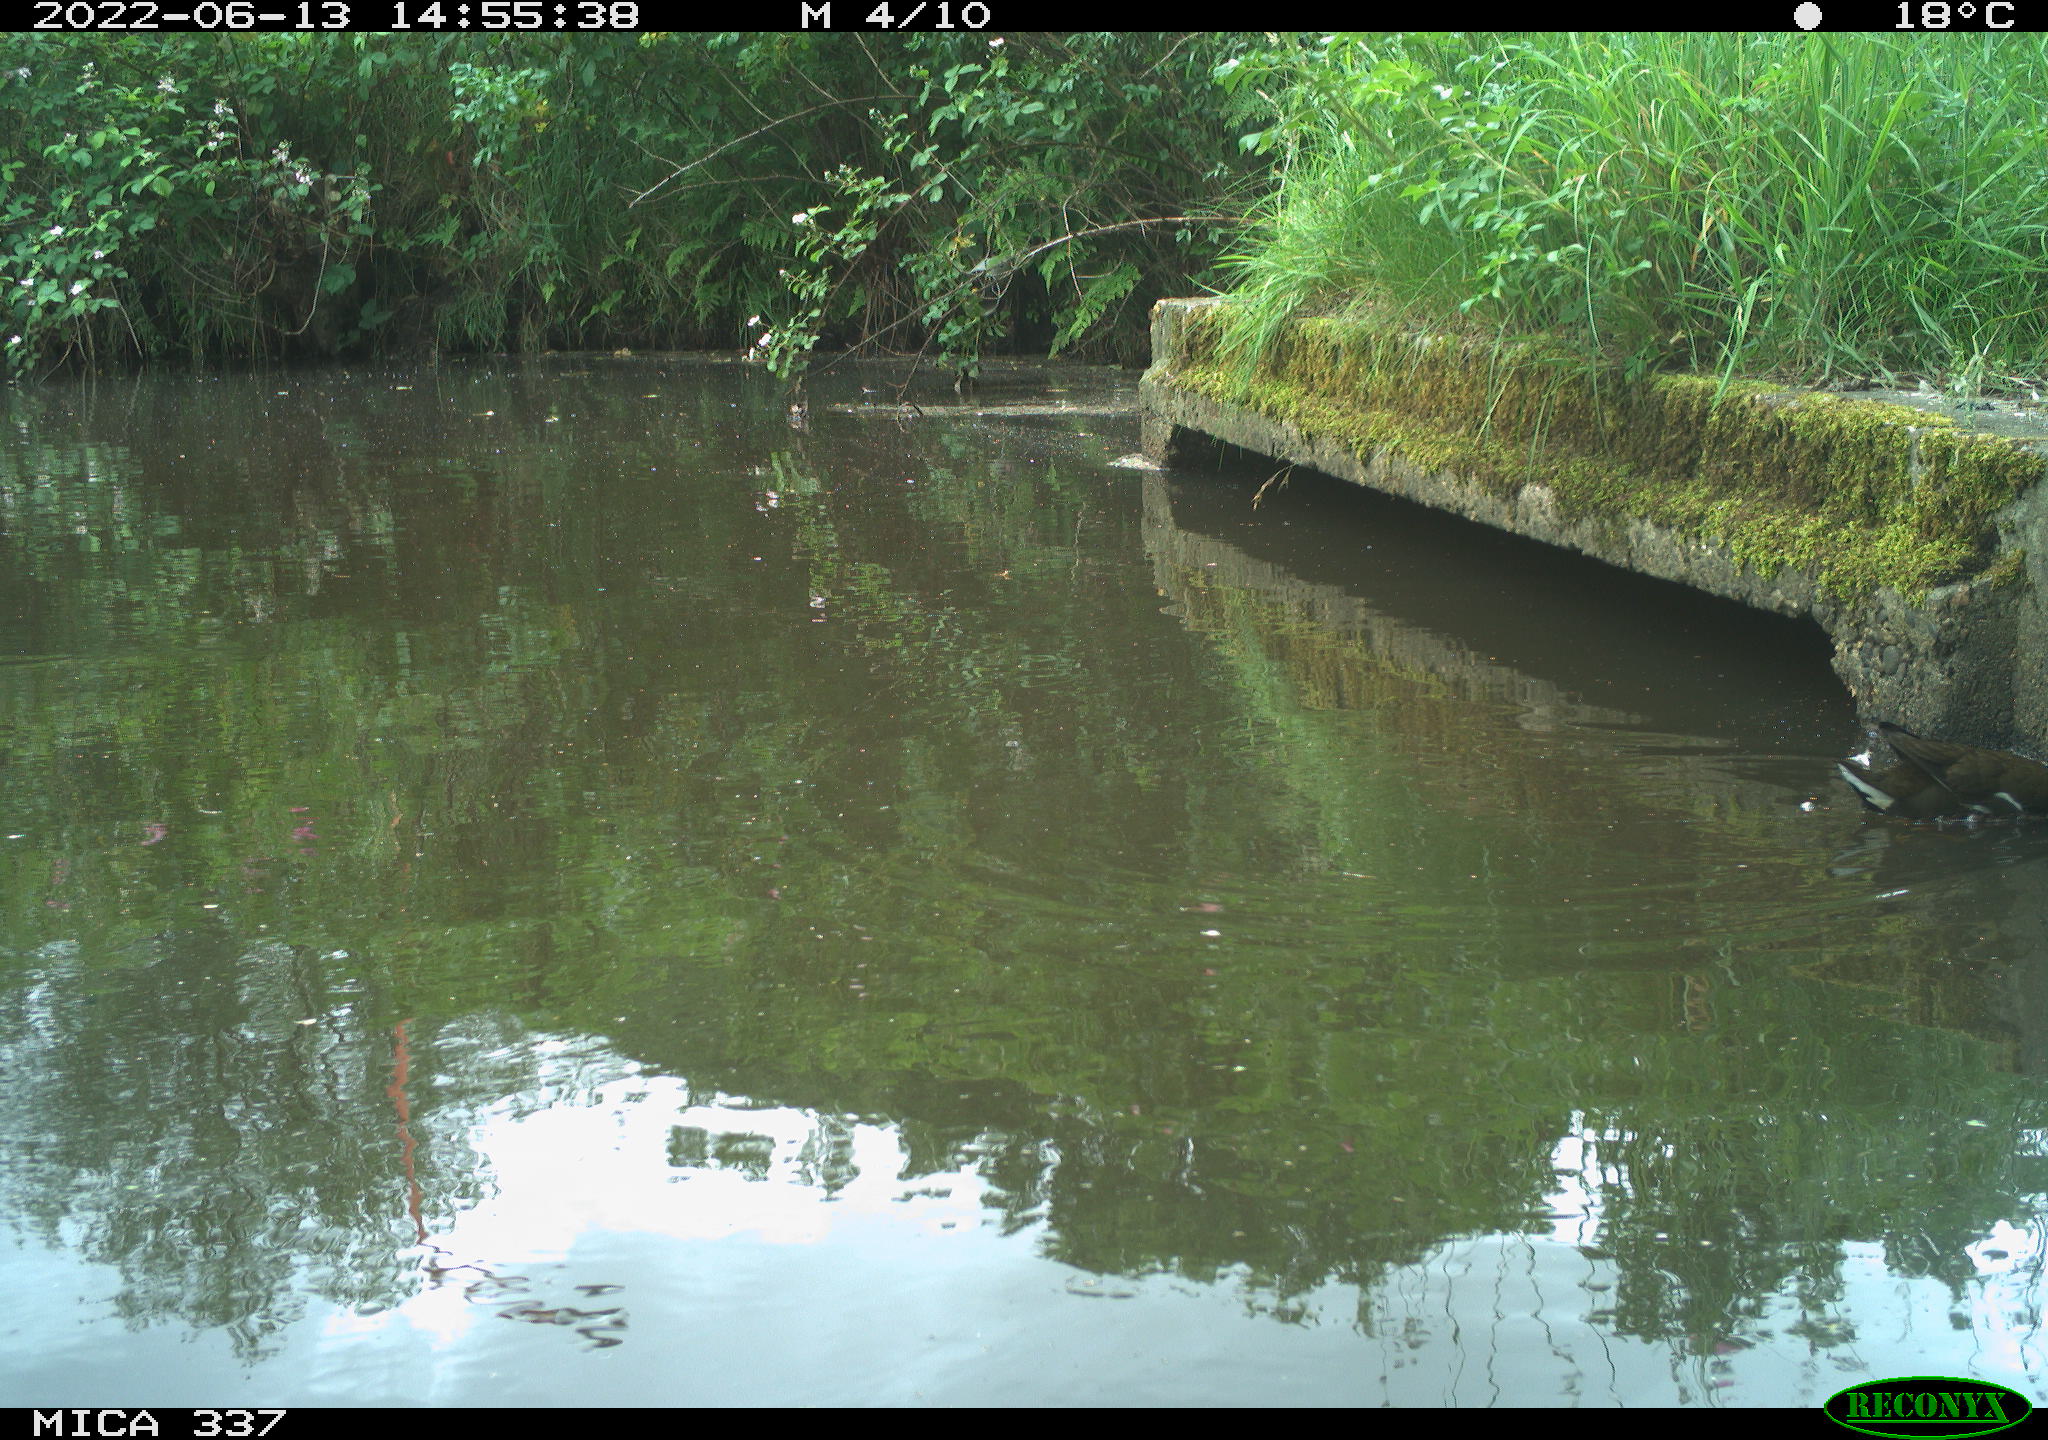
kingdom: Animalia
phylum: Chordata
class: Aves
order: Gruiformes
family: Rallidae
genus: Gallinula
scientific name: Gallinula chloropus
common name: Common moorhen
